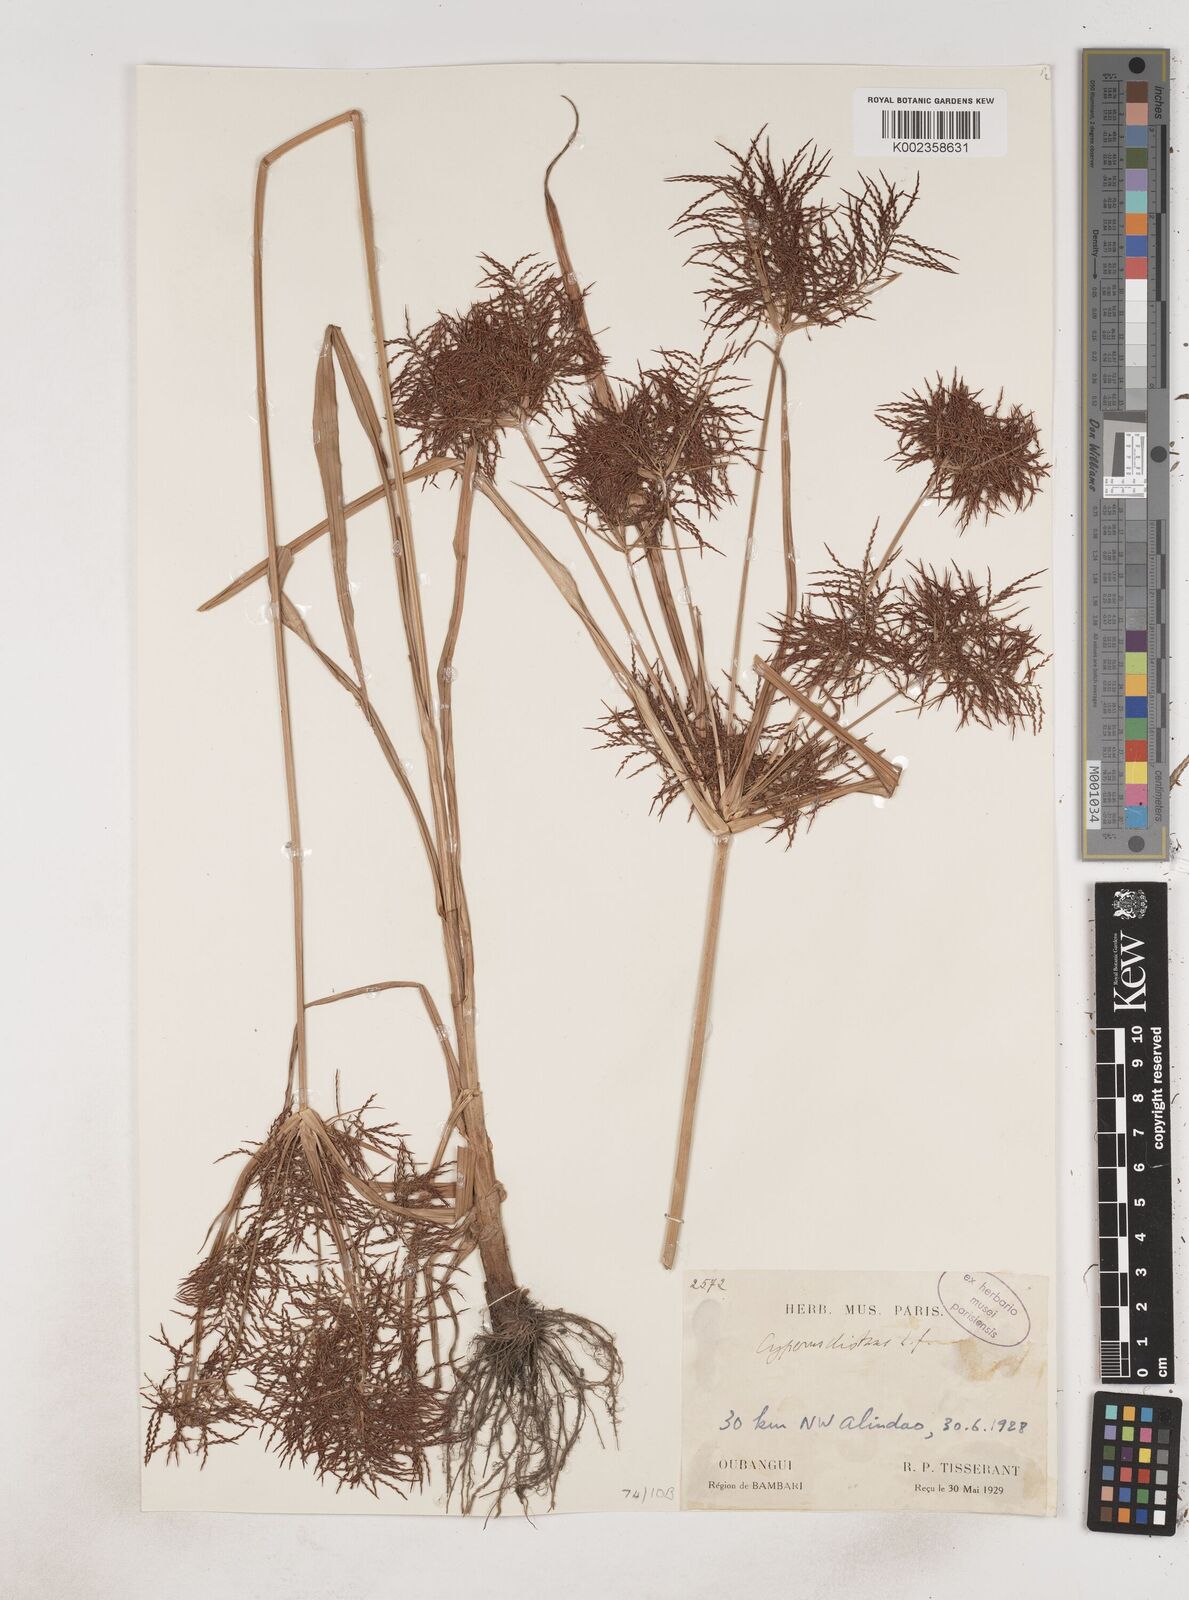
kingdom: Plantae
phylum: Tracheophyta
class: Liliopsida
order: Poales
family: Cyperaceae
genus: Cyperus
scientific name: Cyperus distans
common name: Slender cyperus
